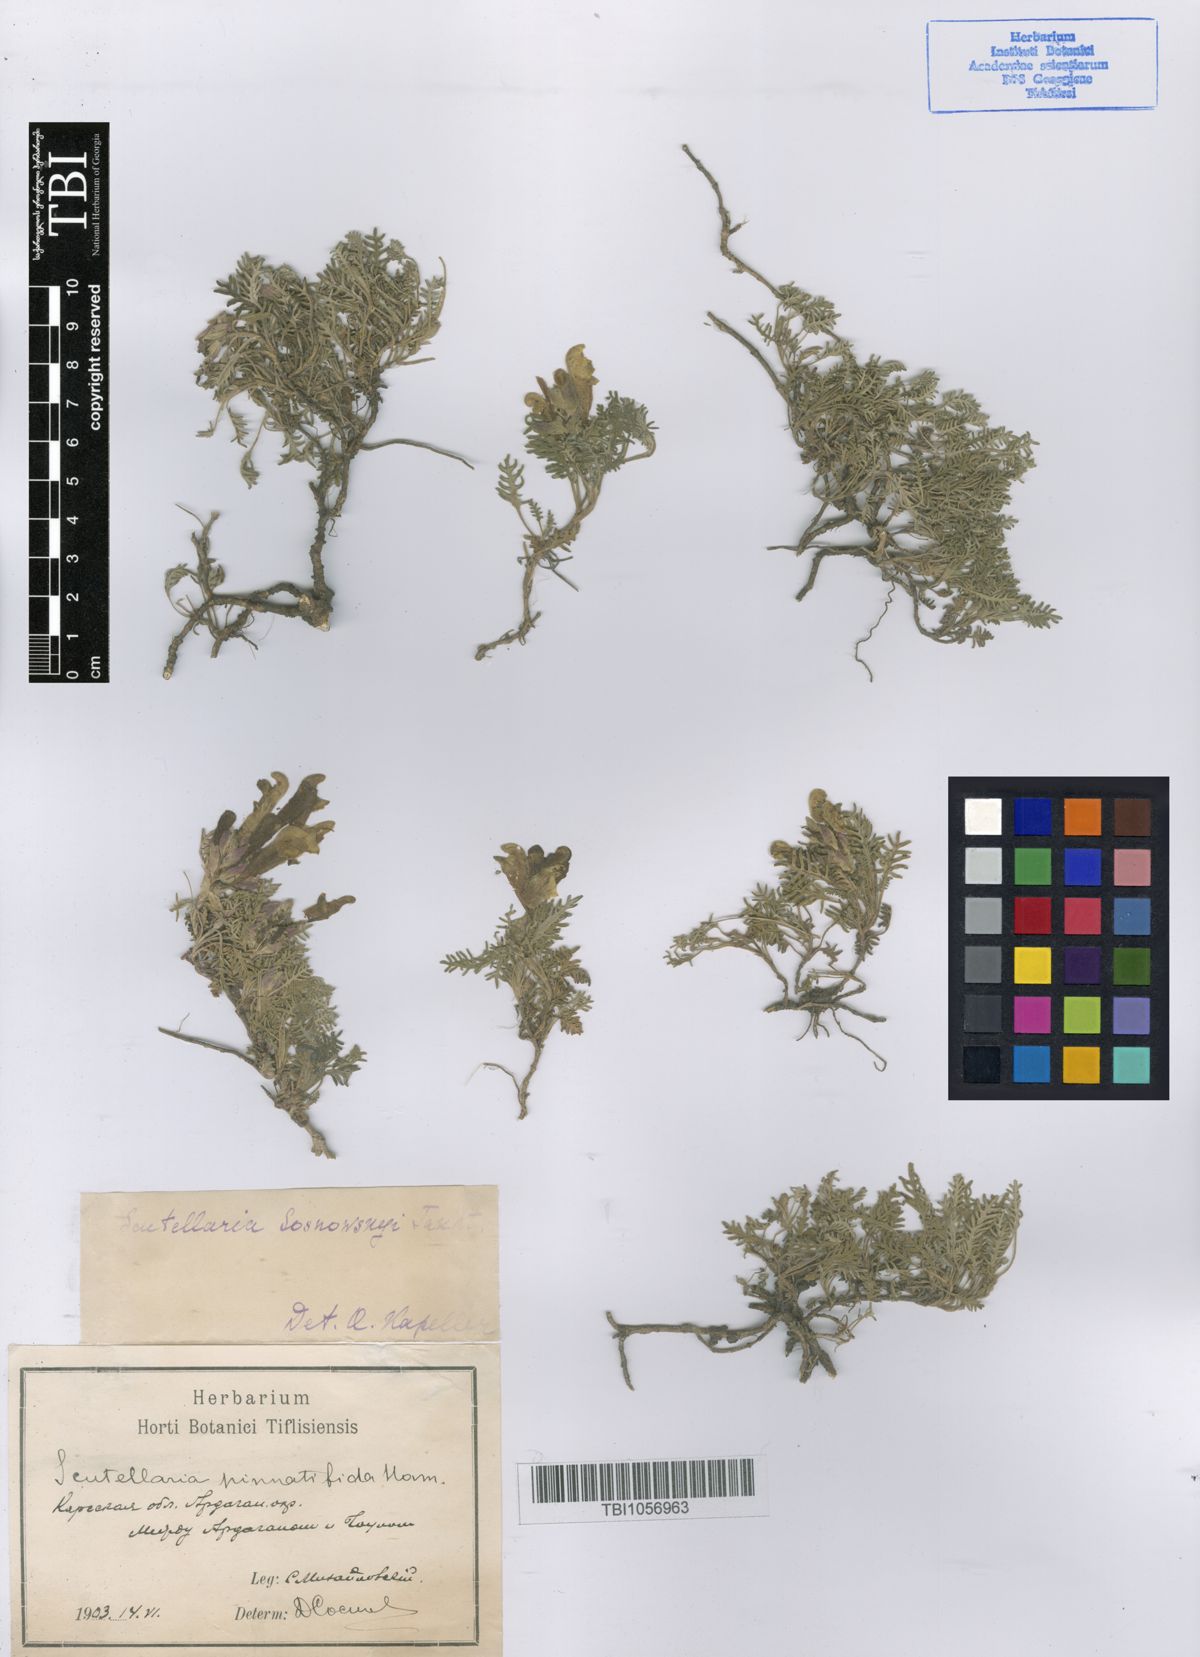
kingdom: Plantae
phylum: Tracheophyta
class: Magnoliopsida
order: Lamiales
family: Lamiaceae
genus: Scutellaria
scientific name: Scutellaria sosnowskyi
